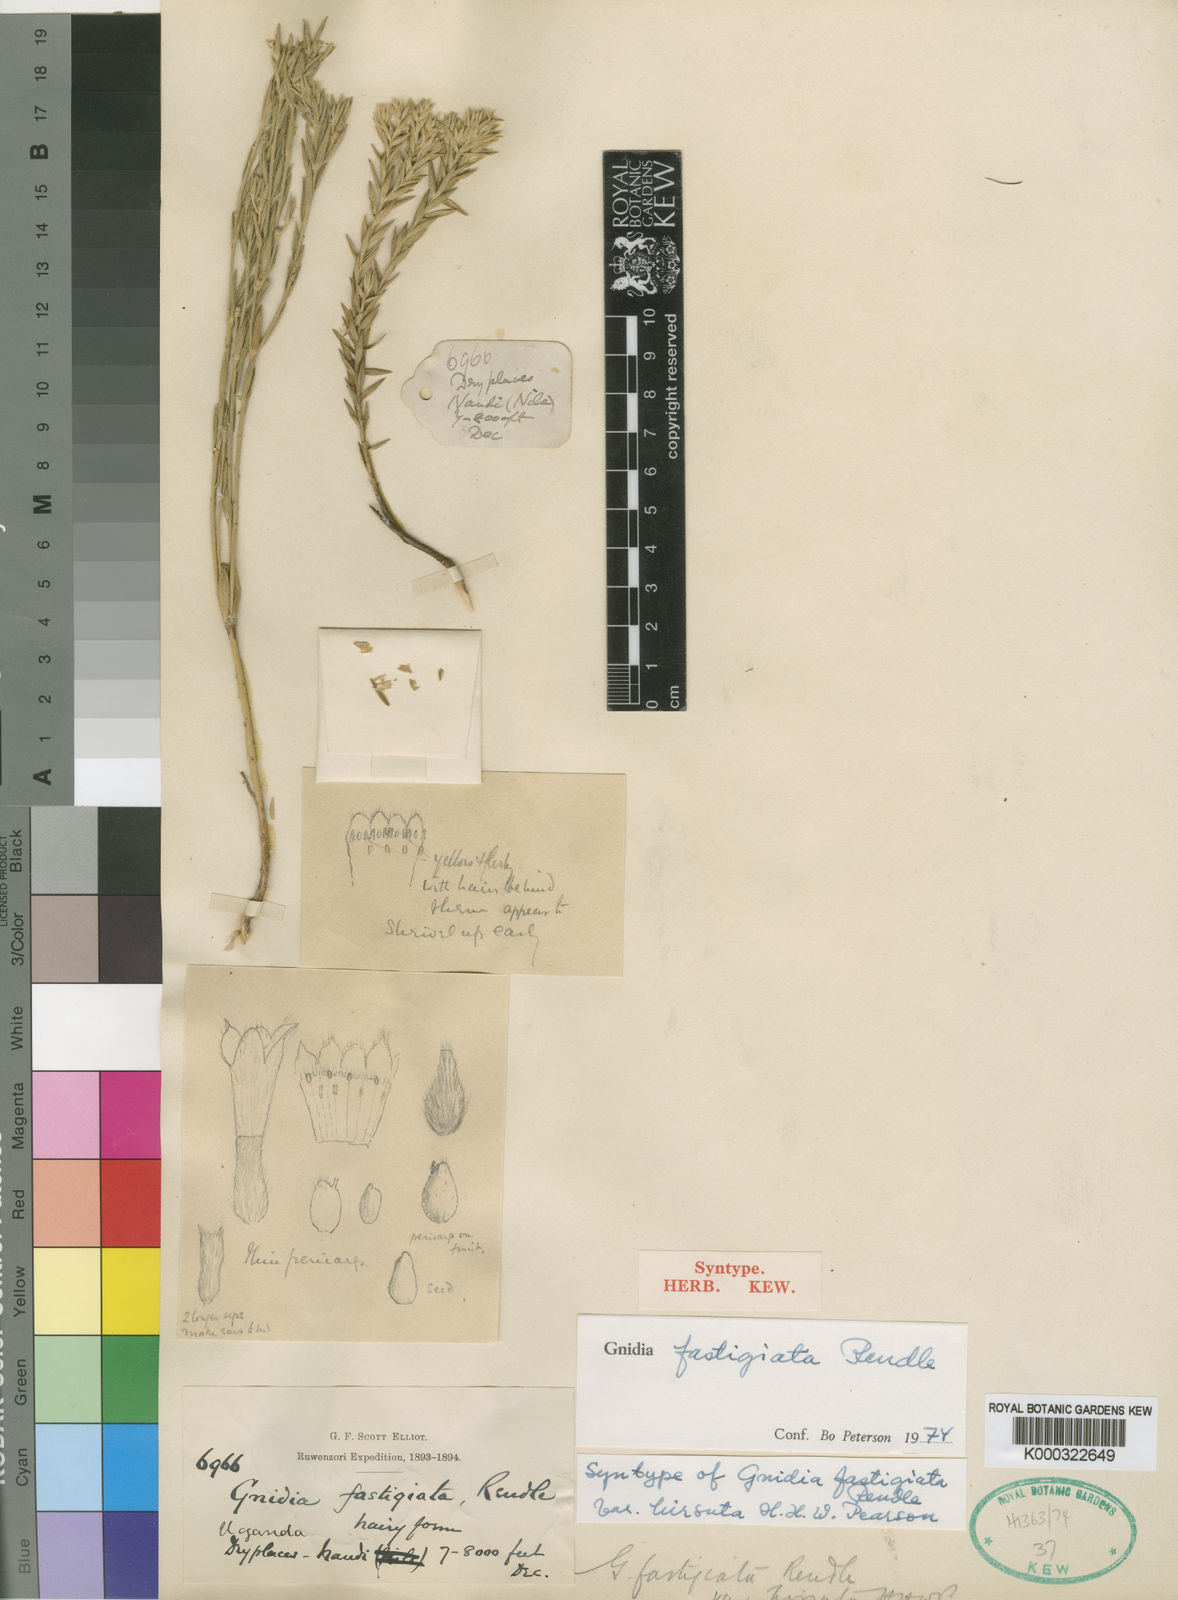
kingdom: Plantae
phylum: Tracheophyta
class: Magnoliopsida
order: Malvales
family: Thymelaeaceae
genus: Gnidia
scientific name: Gnidia fastigiata
